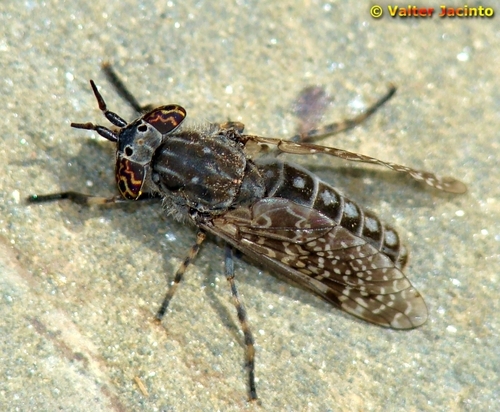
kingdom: Animalia
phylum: Arthropoda
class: Insecta
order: Diptera
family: Tabanidae
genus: Haematopota
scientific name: Haematopota
